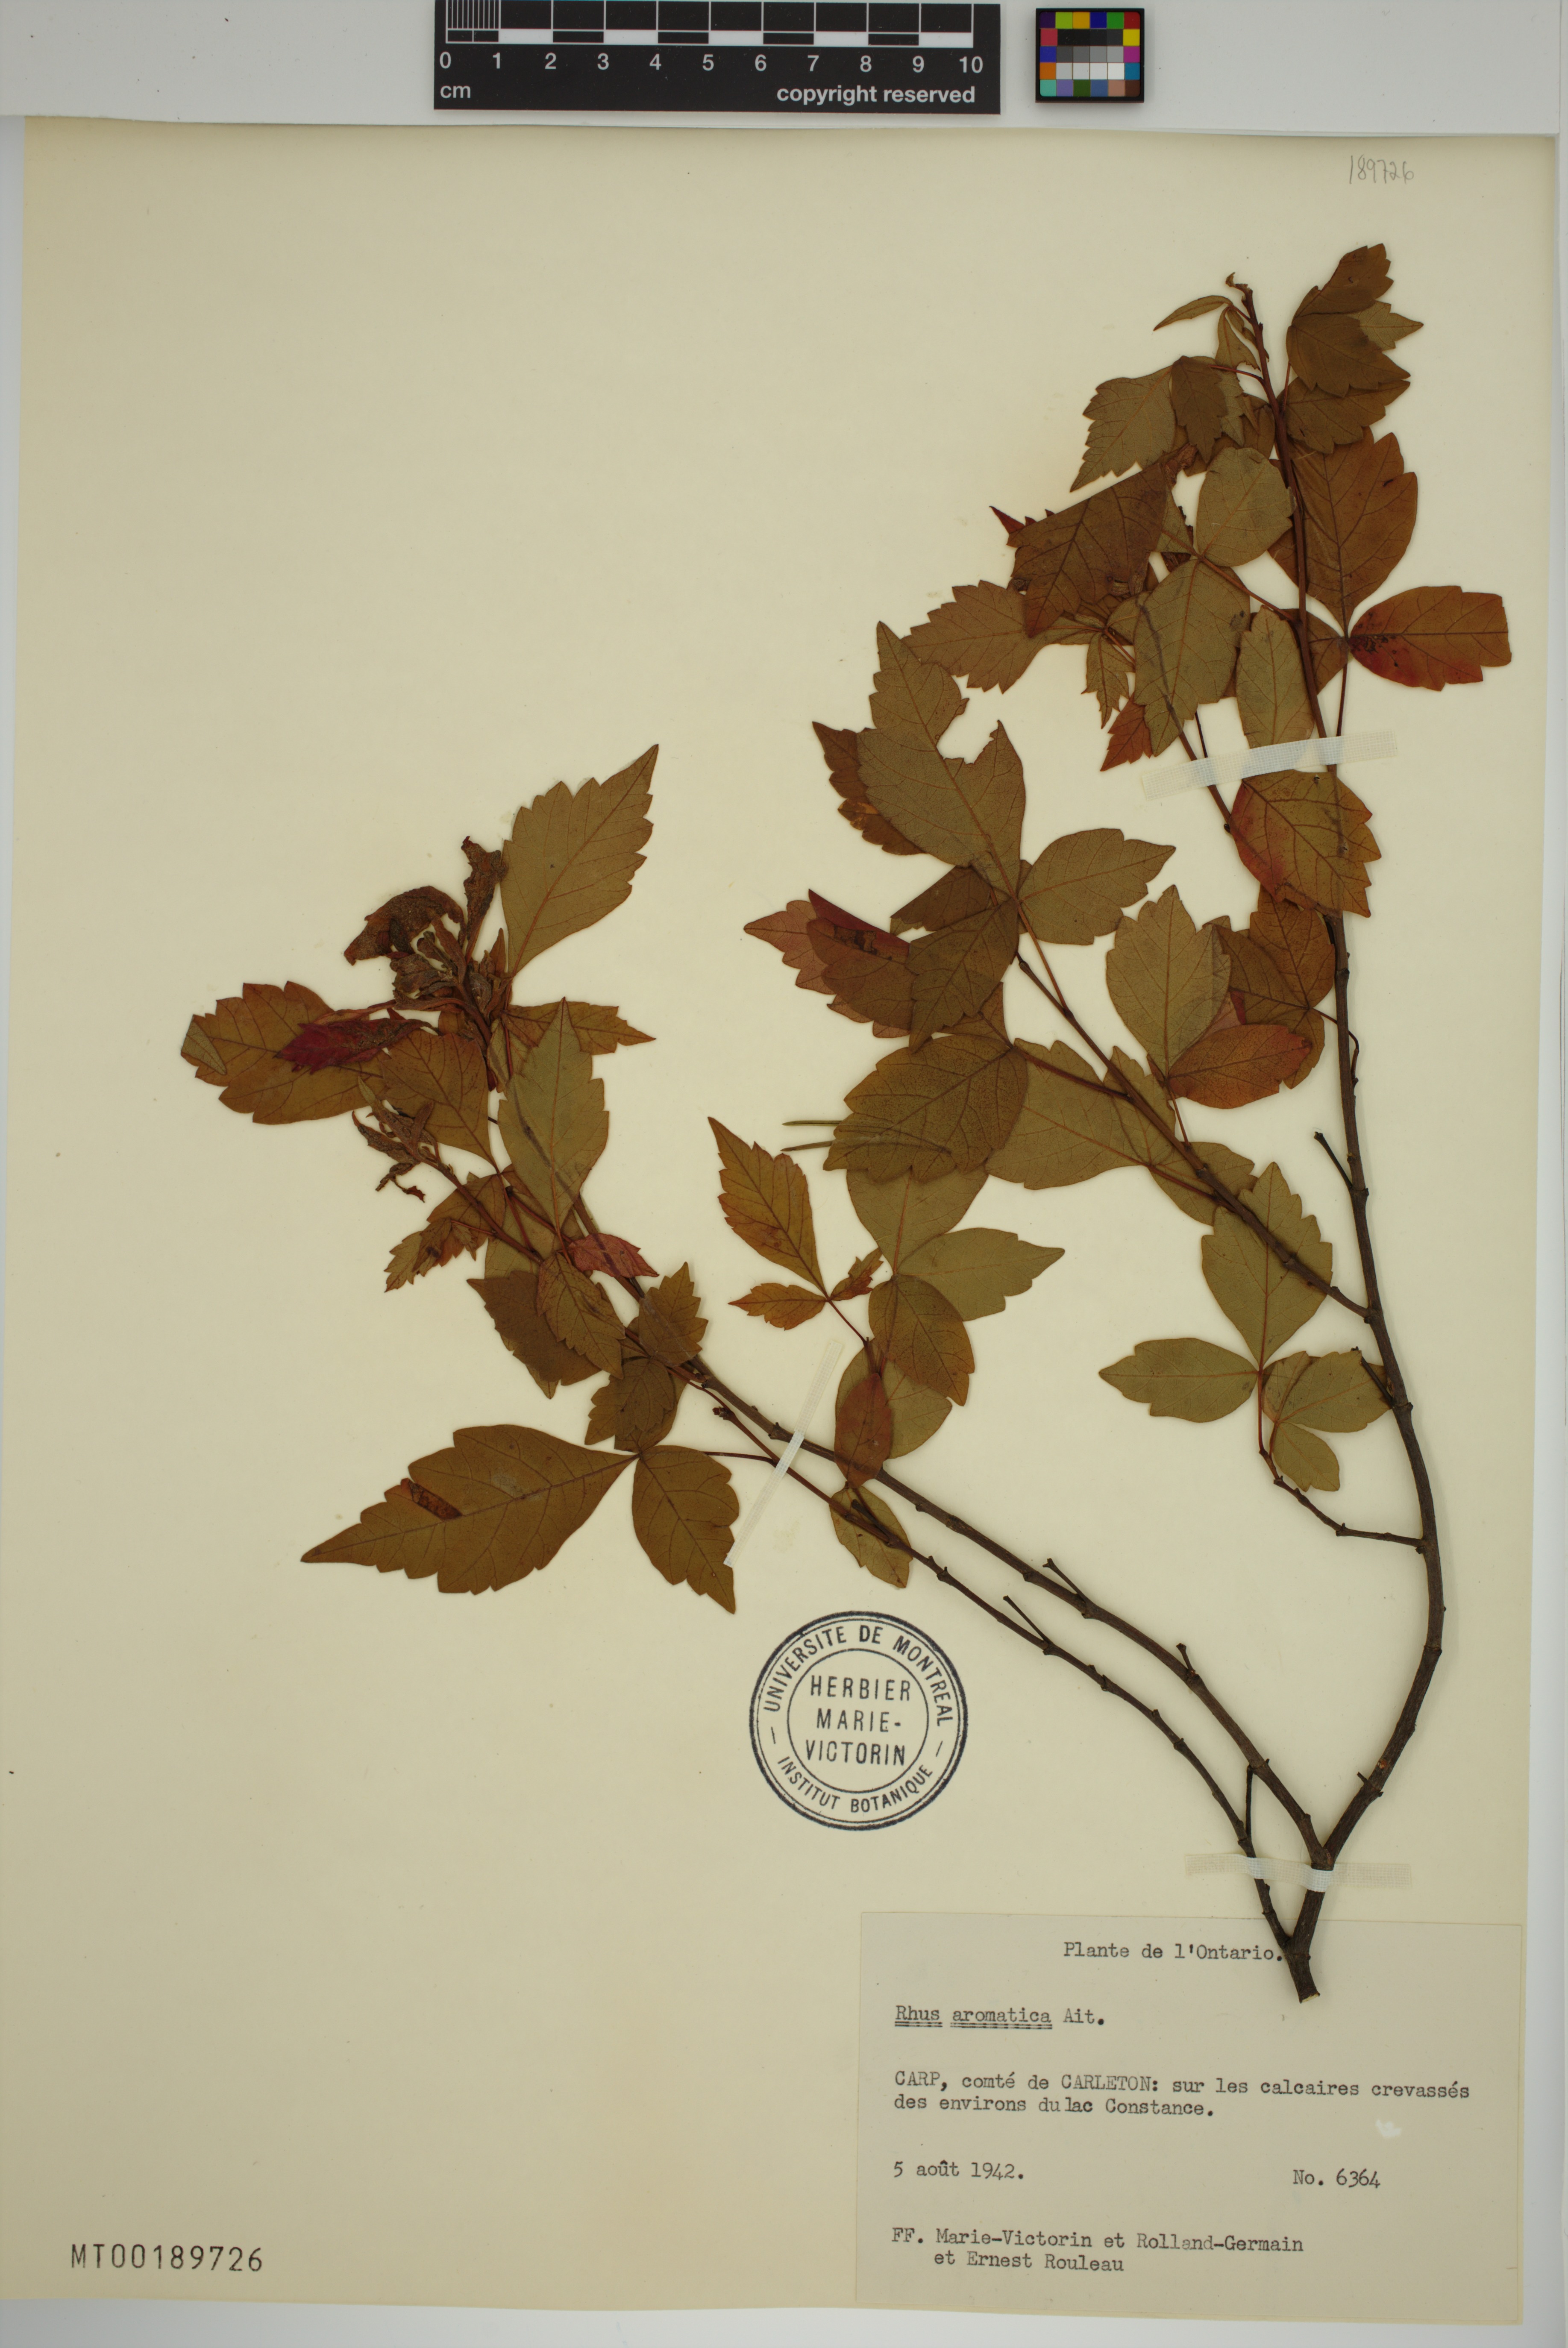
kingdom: Plantae
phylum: Tracheophyta
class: Magnoliopsida
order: Sapindales
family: Anacardiaceae
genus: Rhus
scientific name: Rhus aromatica
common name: Aromatic sumac
